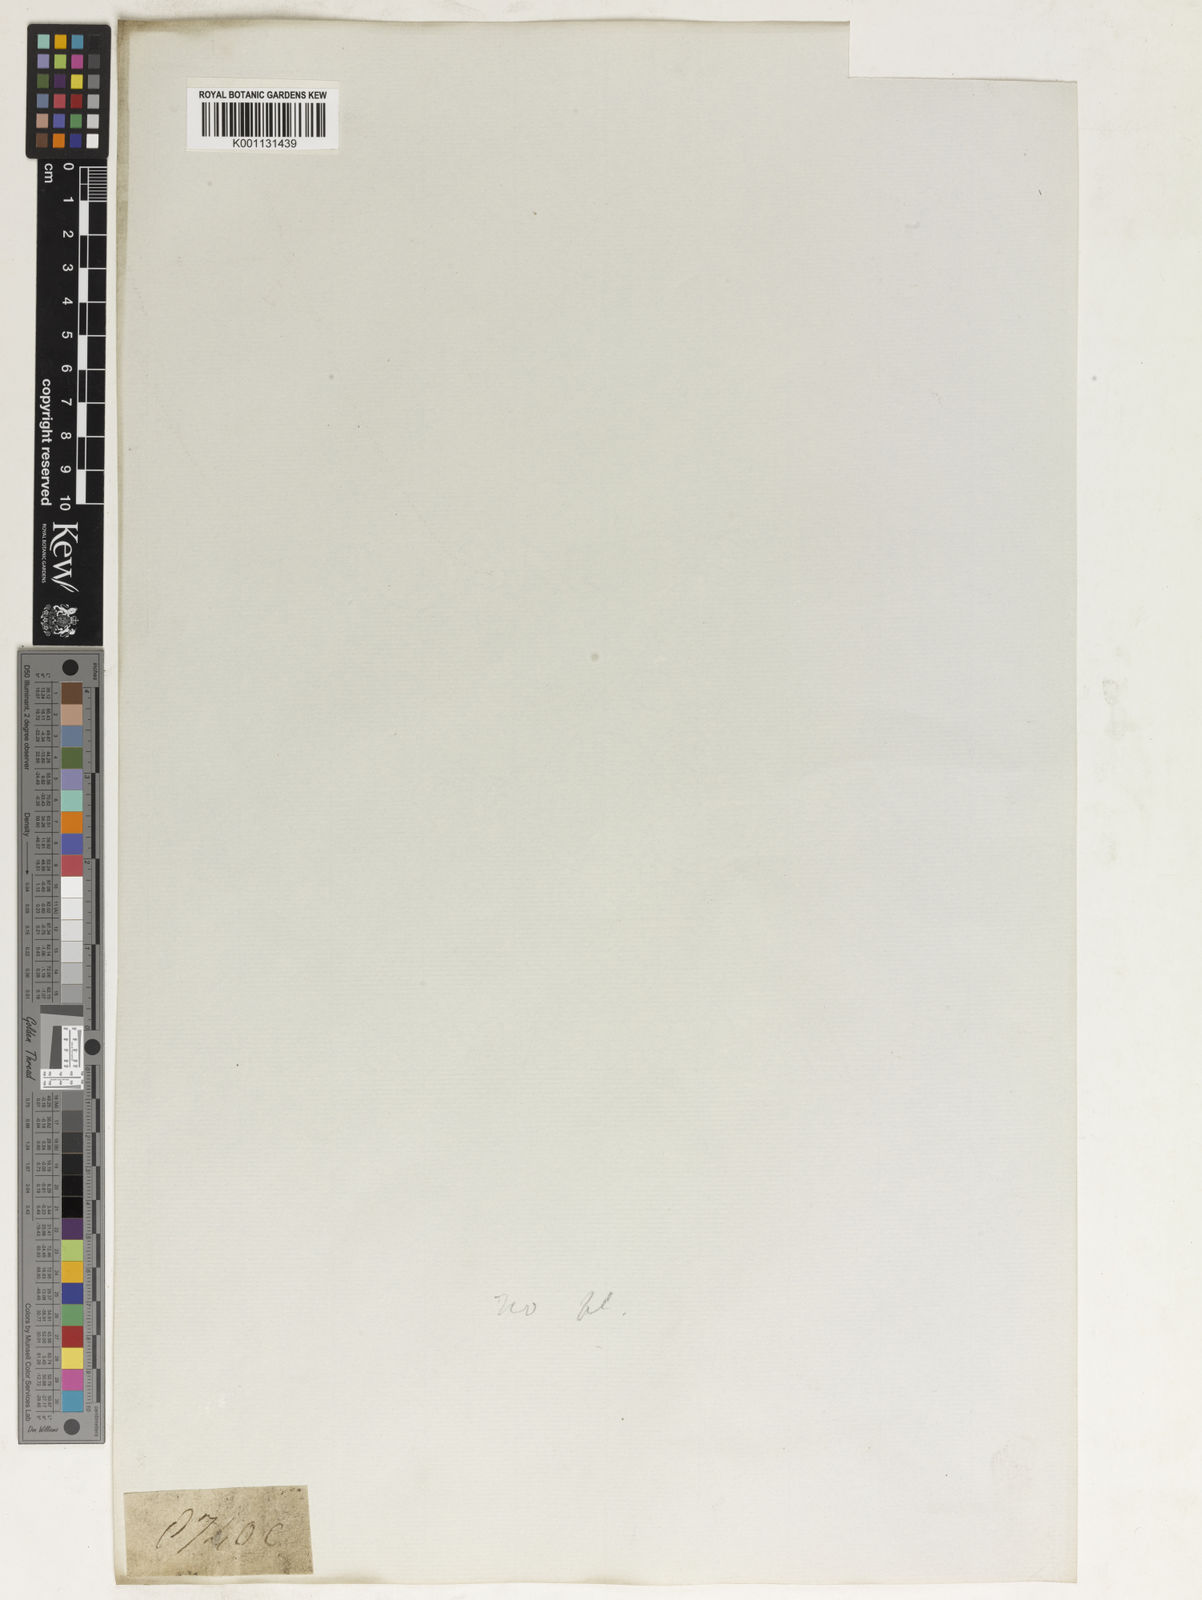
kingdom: Plantae
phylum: Tracheophyta
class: Liliopsida
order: Poales
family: Poaceae
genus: Panicum
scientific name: Panicum
